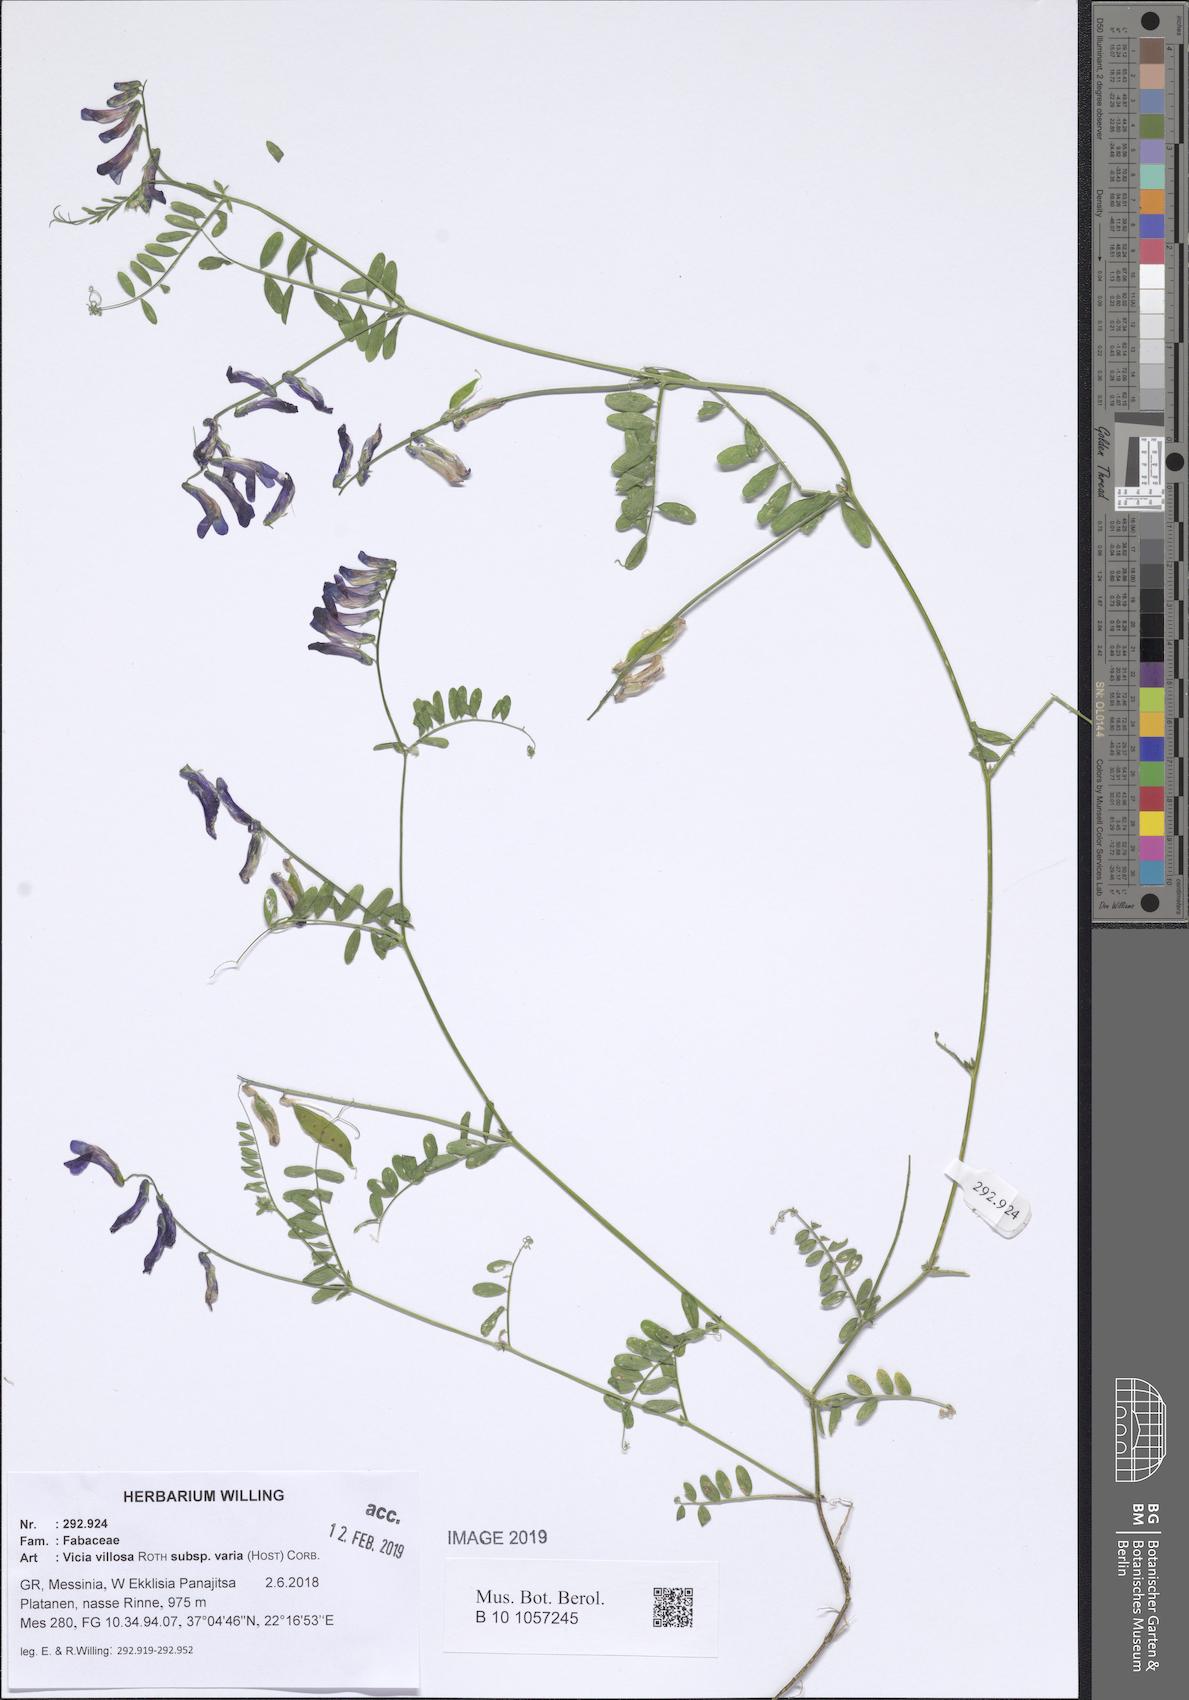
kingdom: Plantae
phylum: Tracheophyta
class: Magnoliopsida
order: Fabales
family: Fabaceae
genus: Vicia
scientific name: Vicia villosa
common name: Fodder vetch
